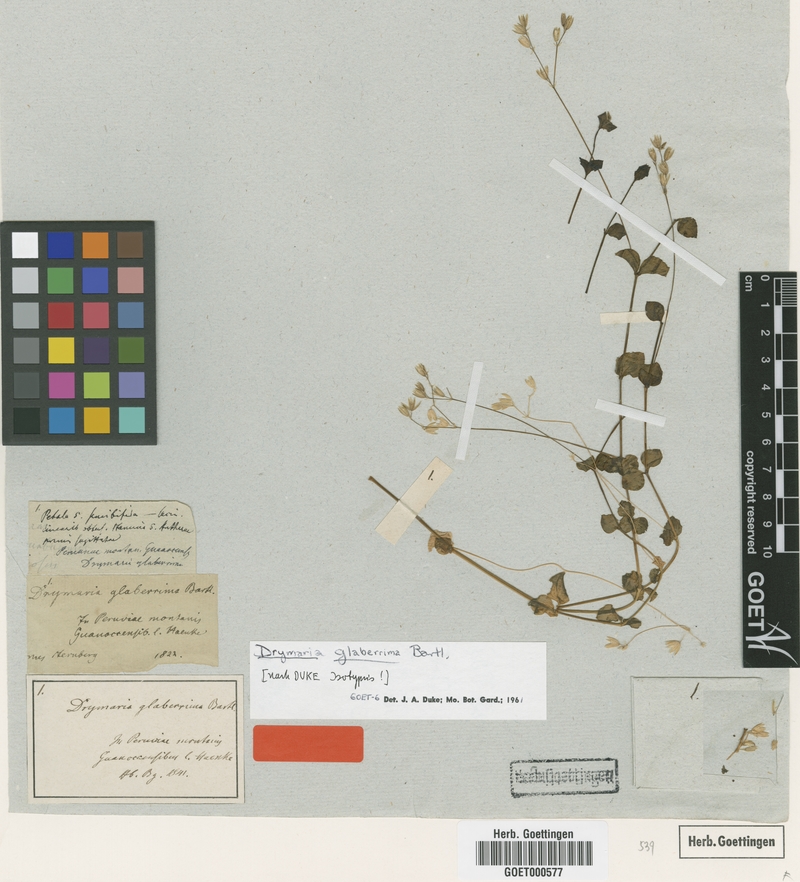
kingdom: Plantae
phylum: Tracheophyta
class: Magnoliopsida
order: Caryophyllales
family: Caryophyllaceae
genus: Drymaria
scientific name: Drymaria glaberrima
